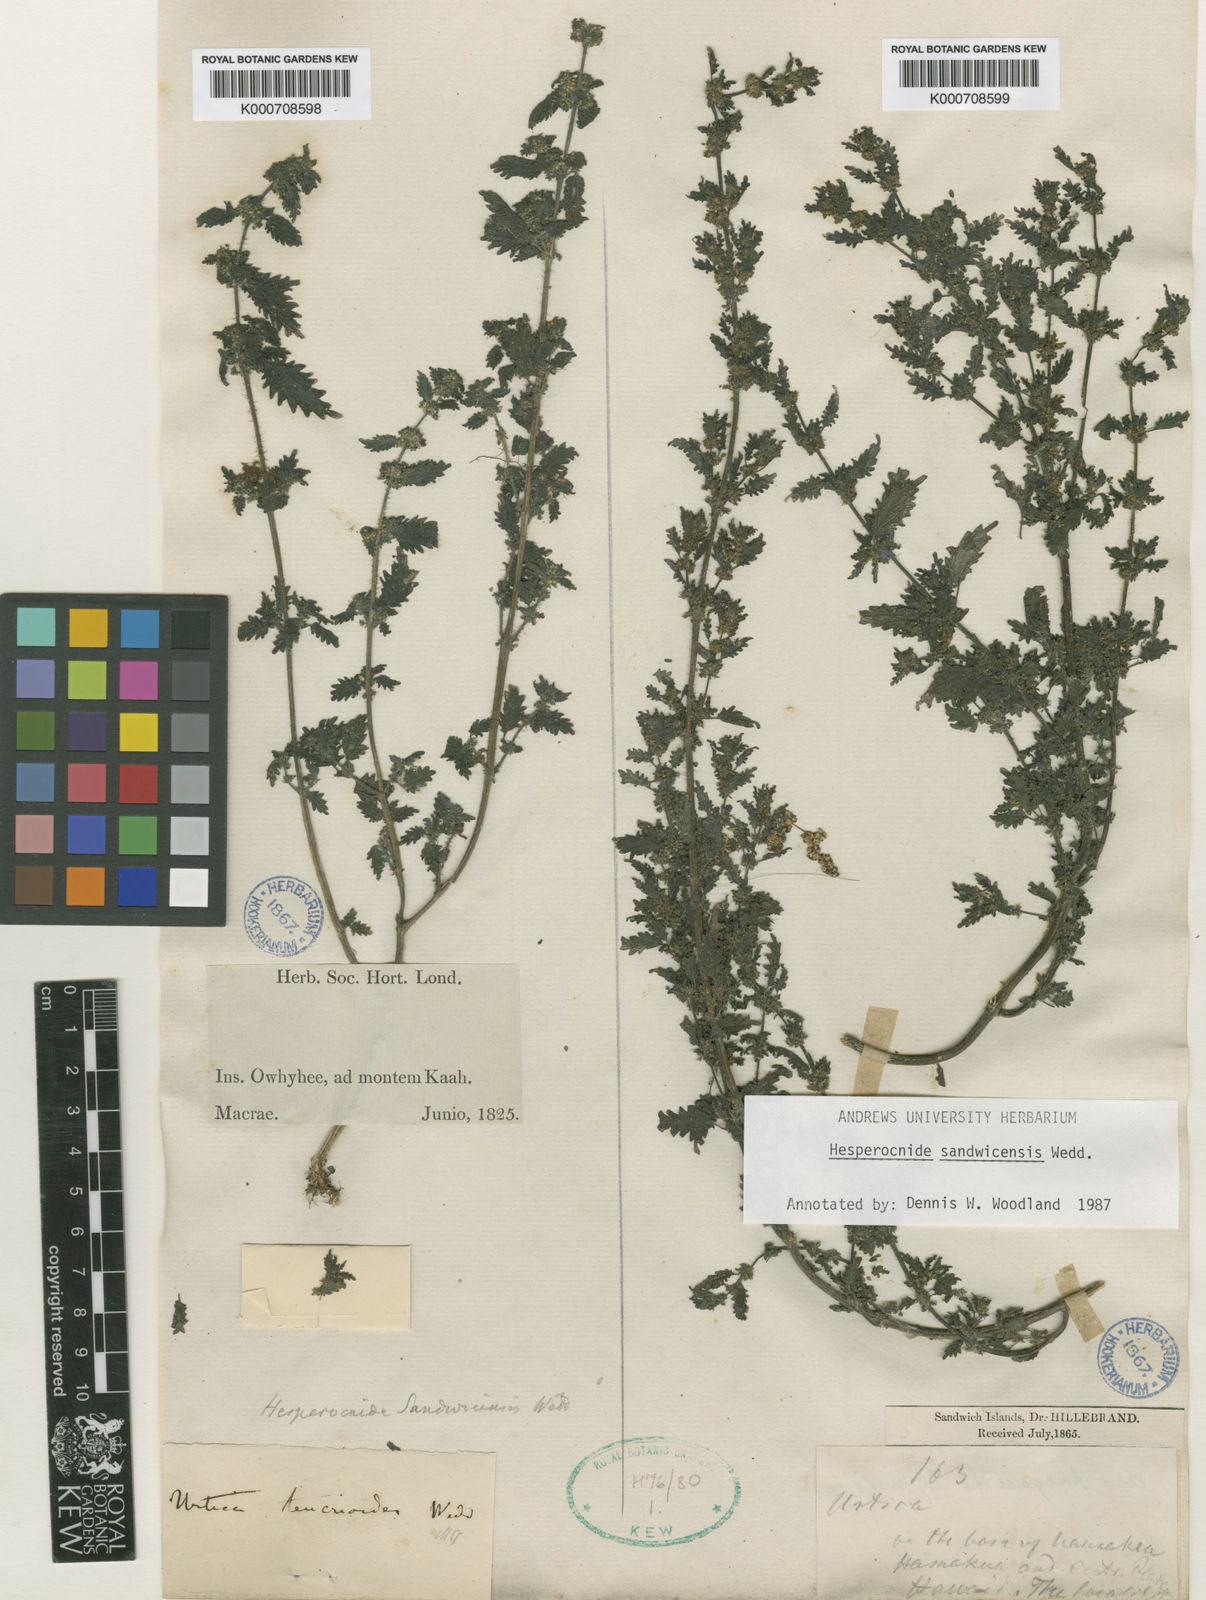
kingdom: Plantae
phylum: Tracheophyta
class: Magnoliopsida
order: Rosales
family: Urticaceae
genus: Hesperocnide
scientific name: Hesperocnide sandwicensis
